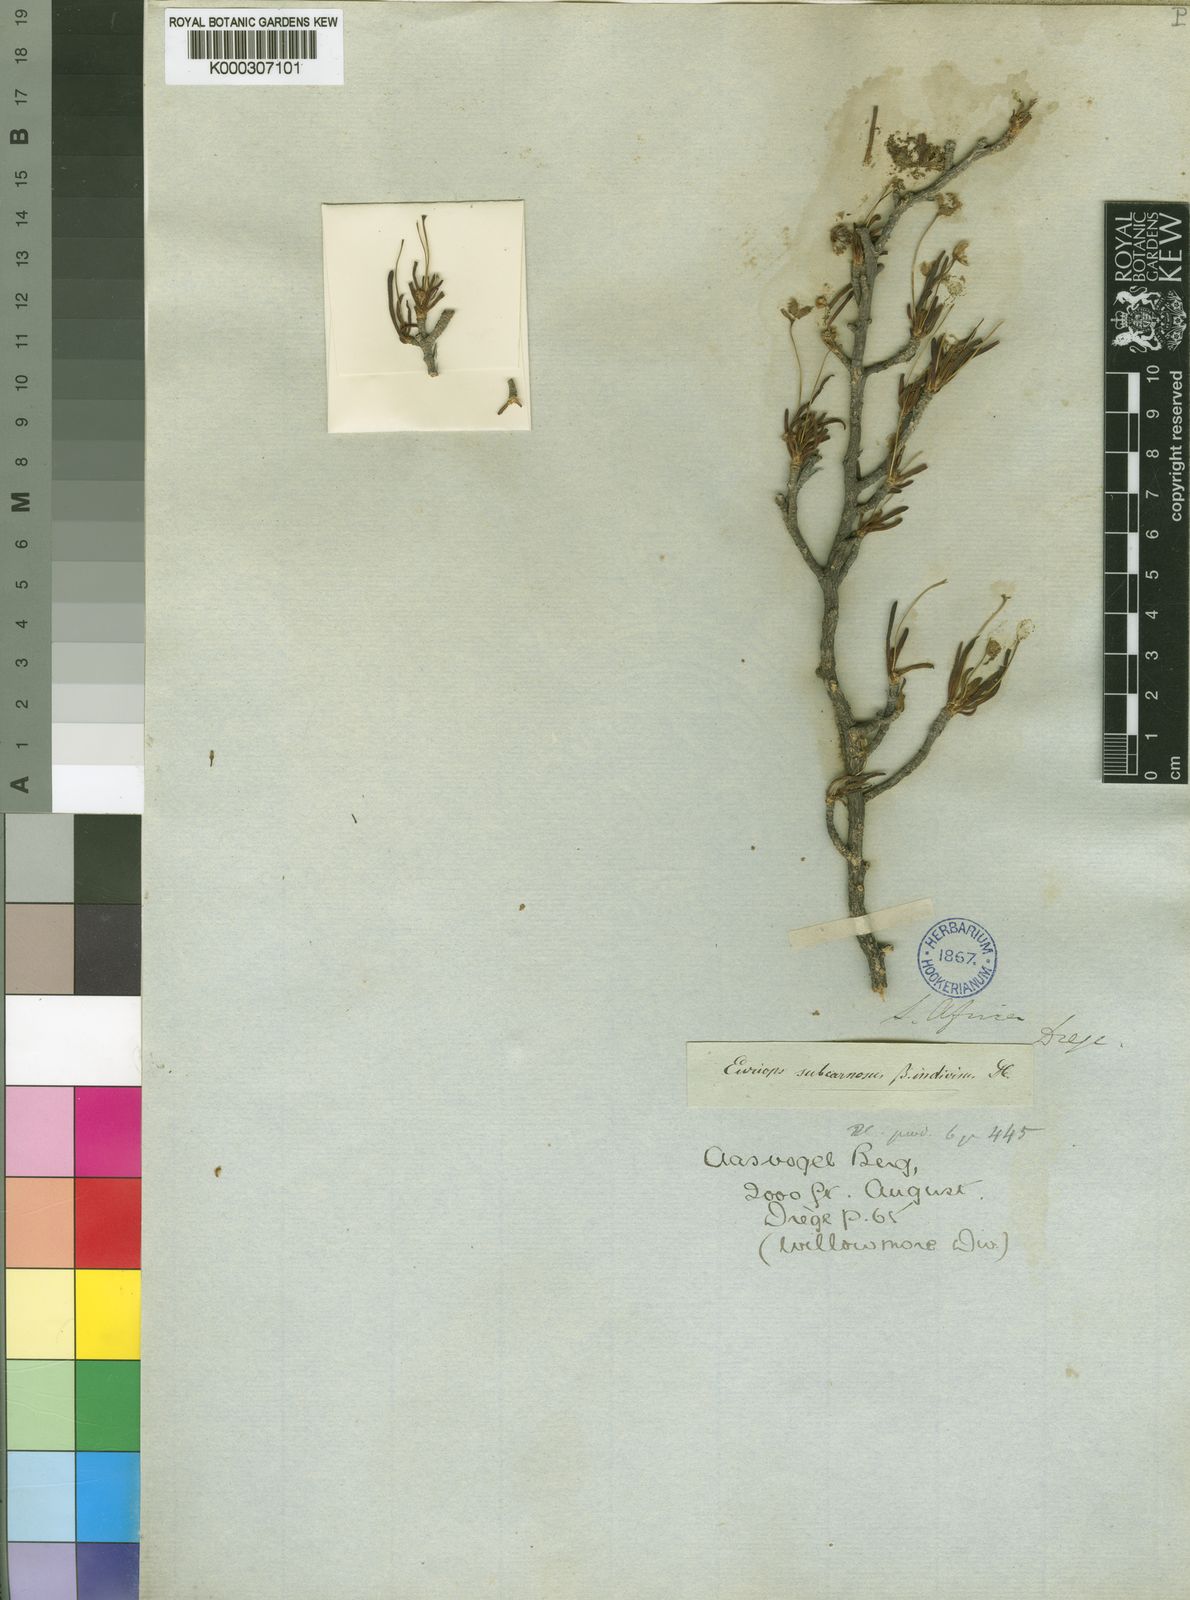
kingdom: Plantae
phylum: Tracheophyta
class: Magnoliopsida
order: Asterales
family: Asteraceae
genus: Euryops
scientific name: Euryops multifidus
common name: Hawk's eye
